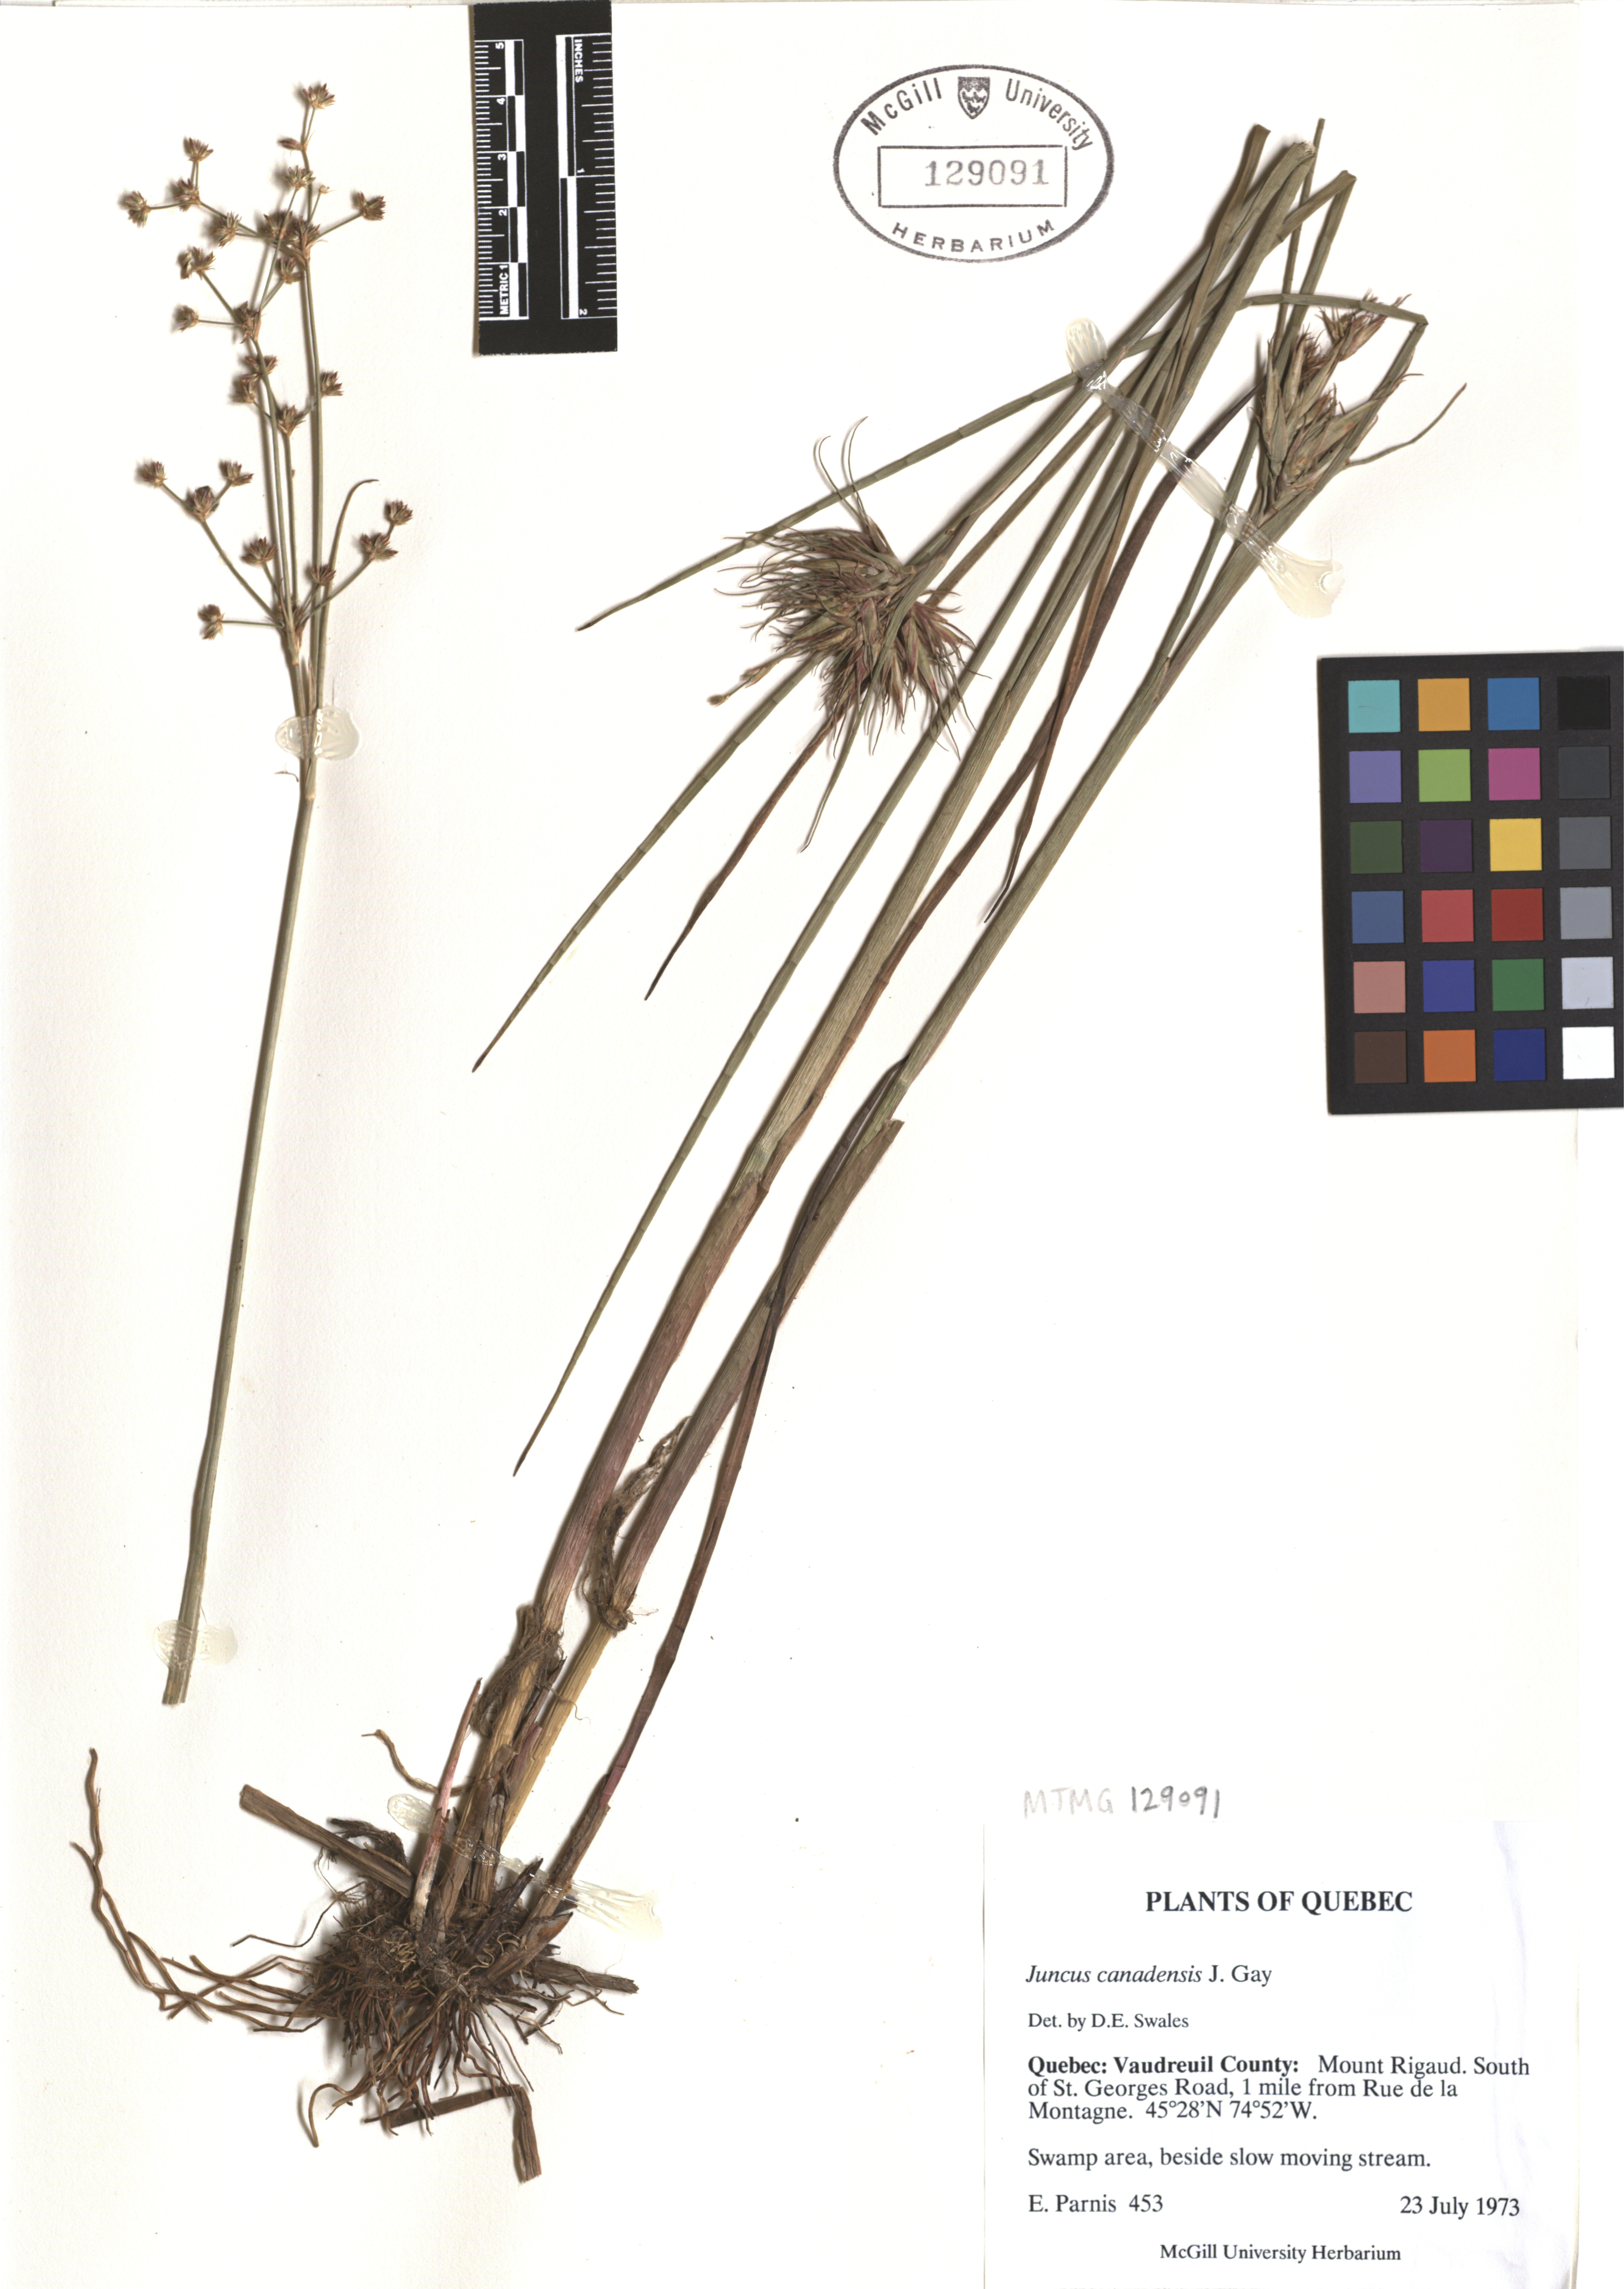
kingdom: Plantae
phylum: Tracheophyta
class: Liliopsida
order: Poales
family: Juncaceae
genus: Juncus
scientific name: Juncus canadensis
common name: Canada rush
